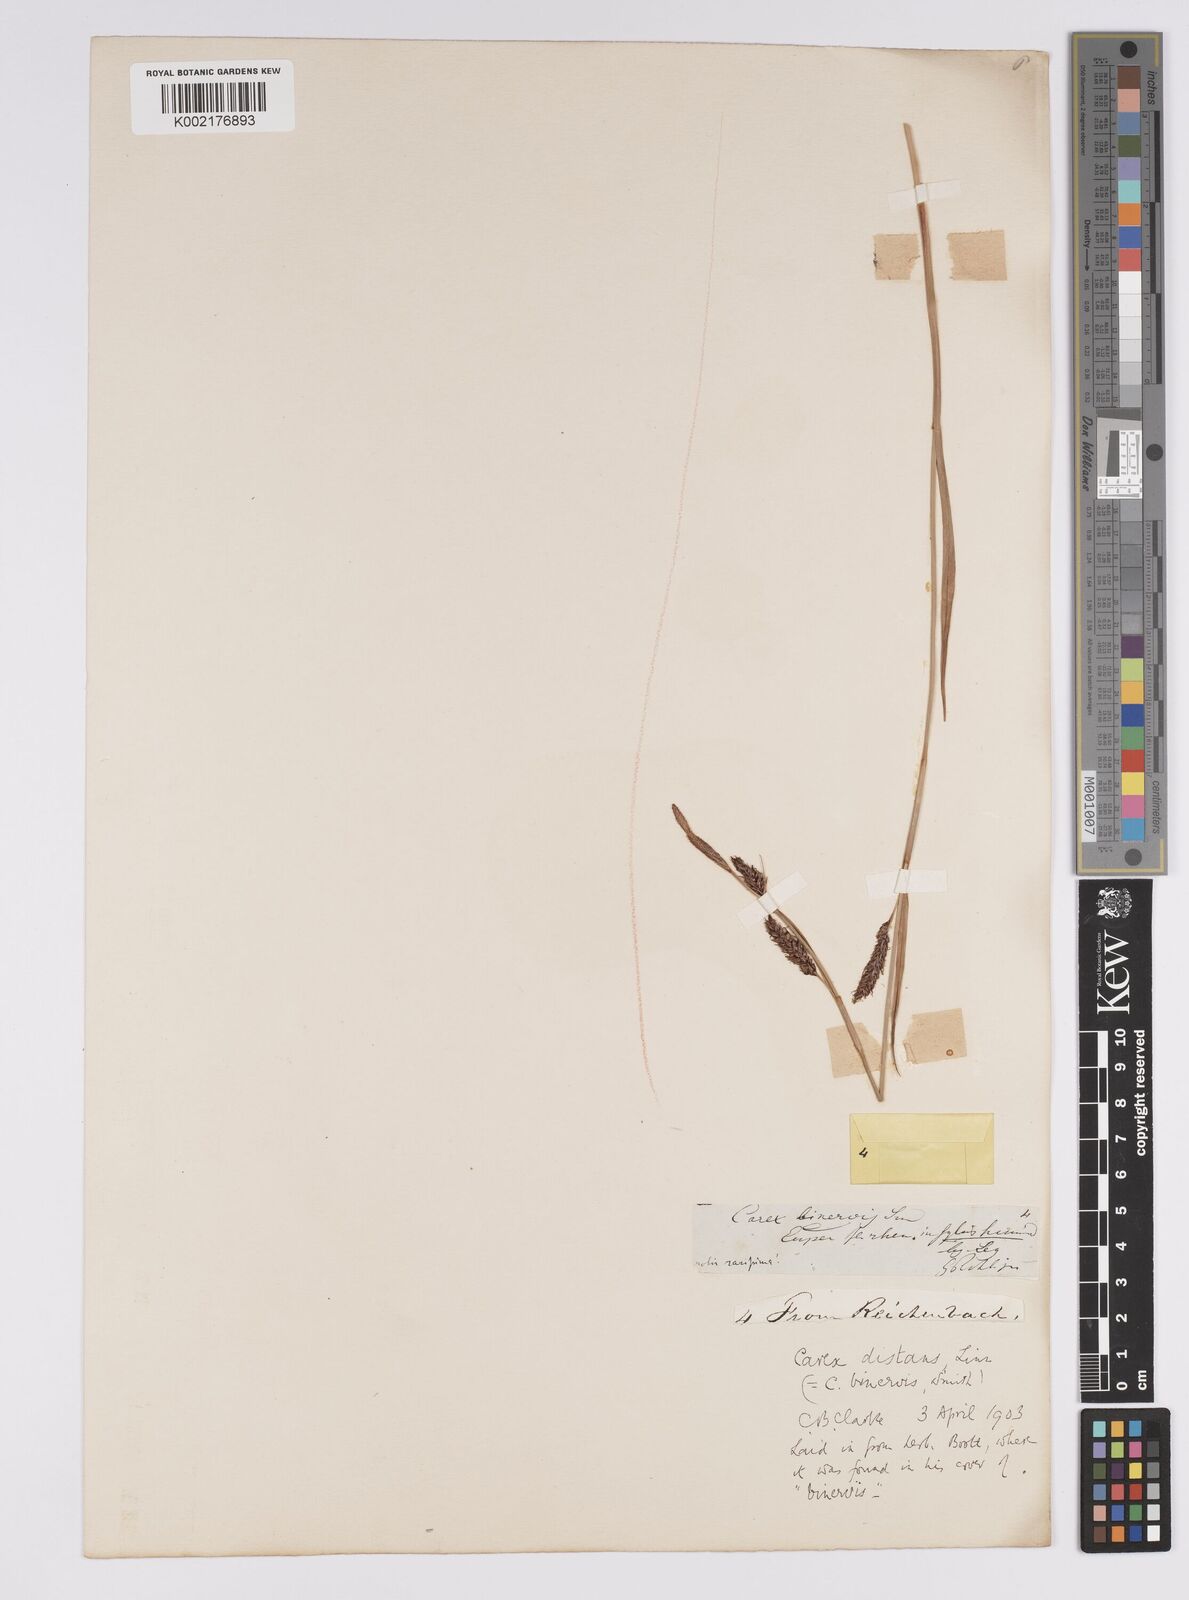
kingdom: Plantae
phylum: Tracheophyta
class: Liliopsida
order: Poales
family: Cyperaceae
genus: Carex
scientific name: Carex binervis
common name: Green-ribbed sedge
